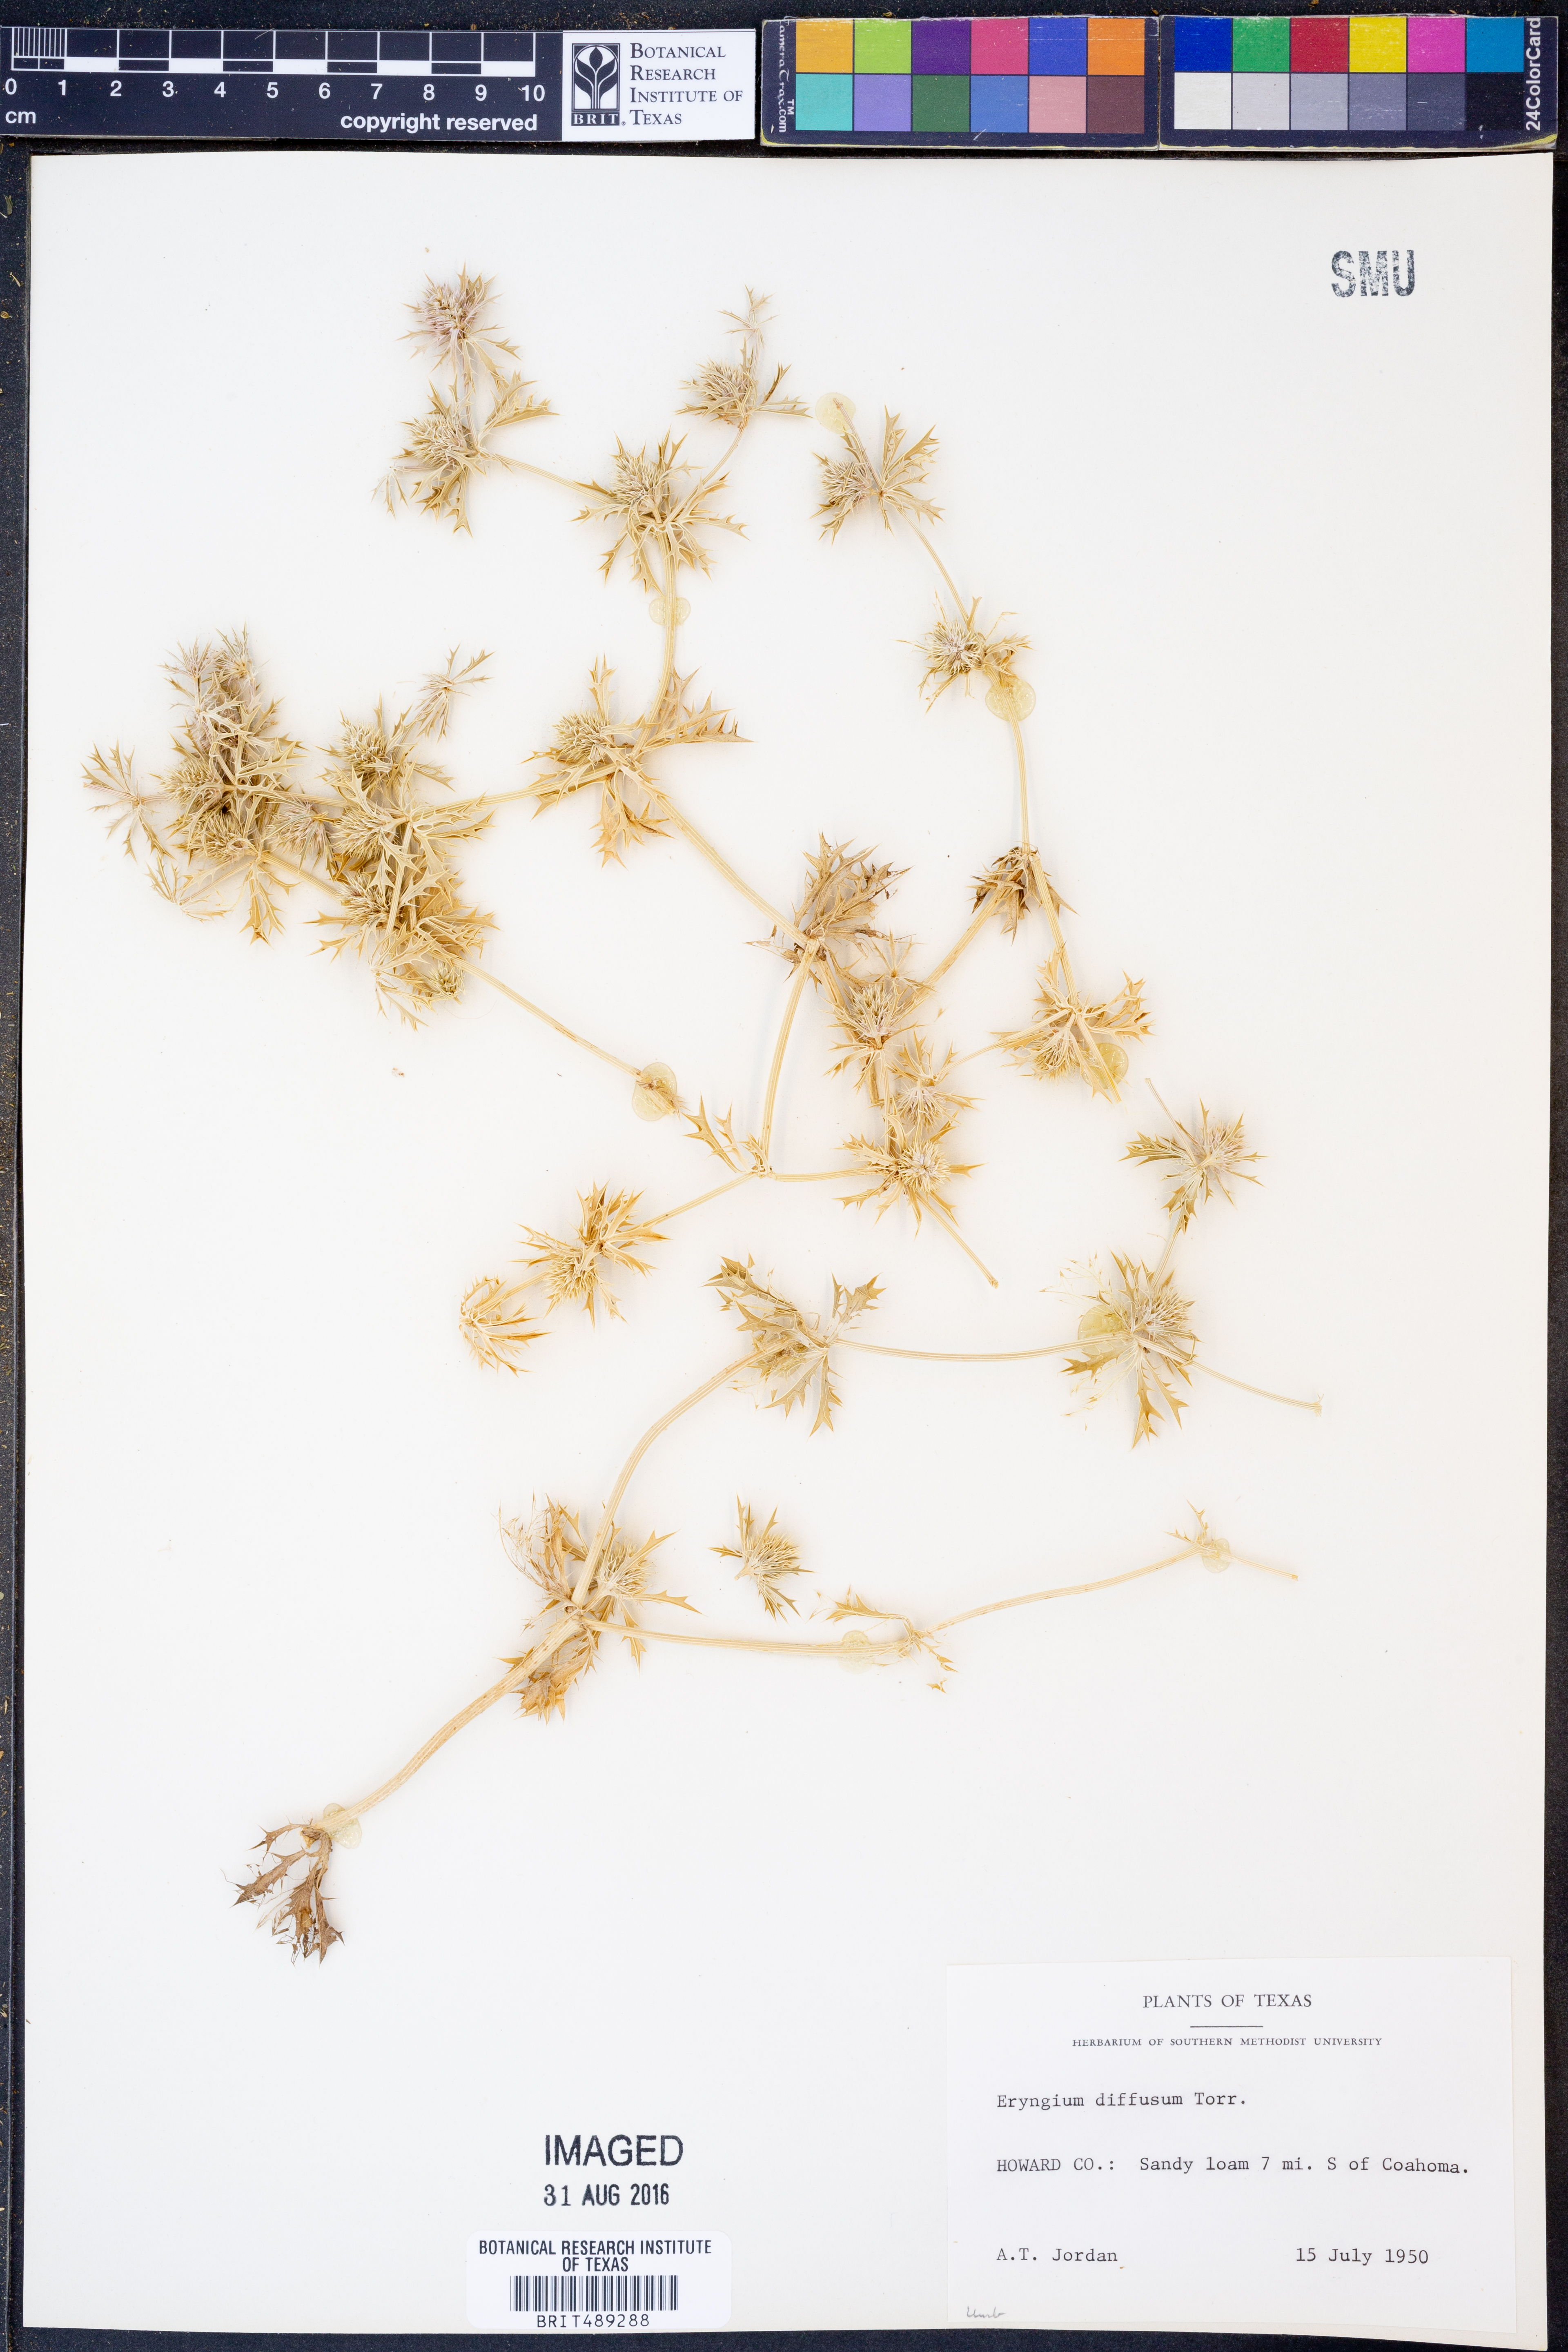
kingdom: Plantae
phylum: Tracheophyta
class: Magnoliopsida
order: Apiales
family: Apiaceae
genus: Eryngium
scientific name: Eryngium diffusum
